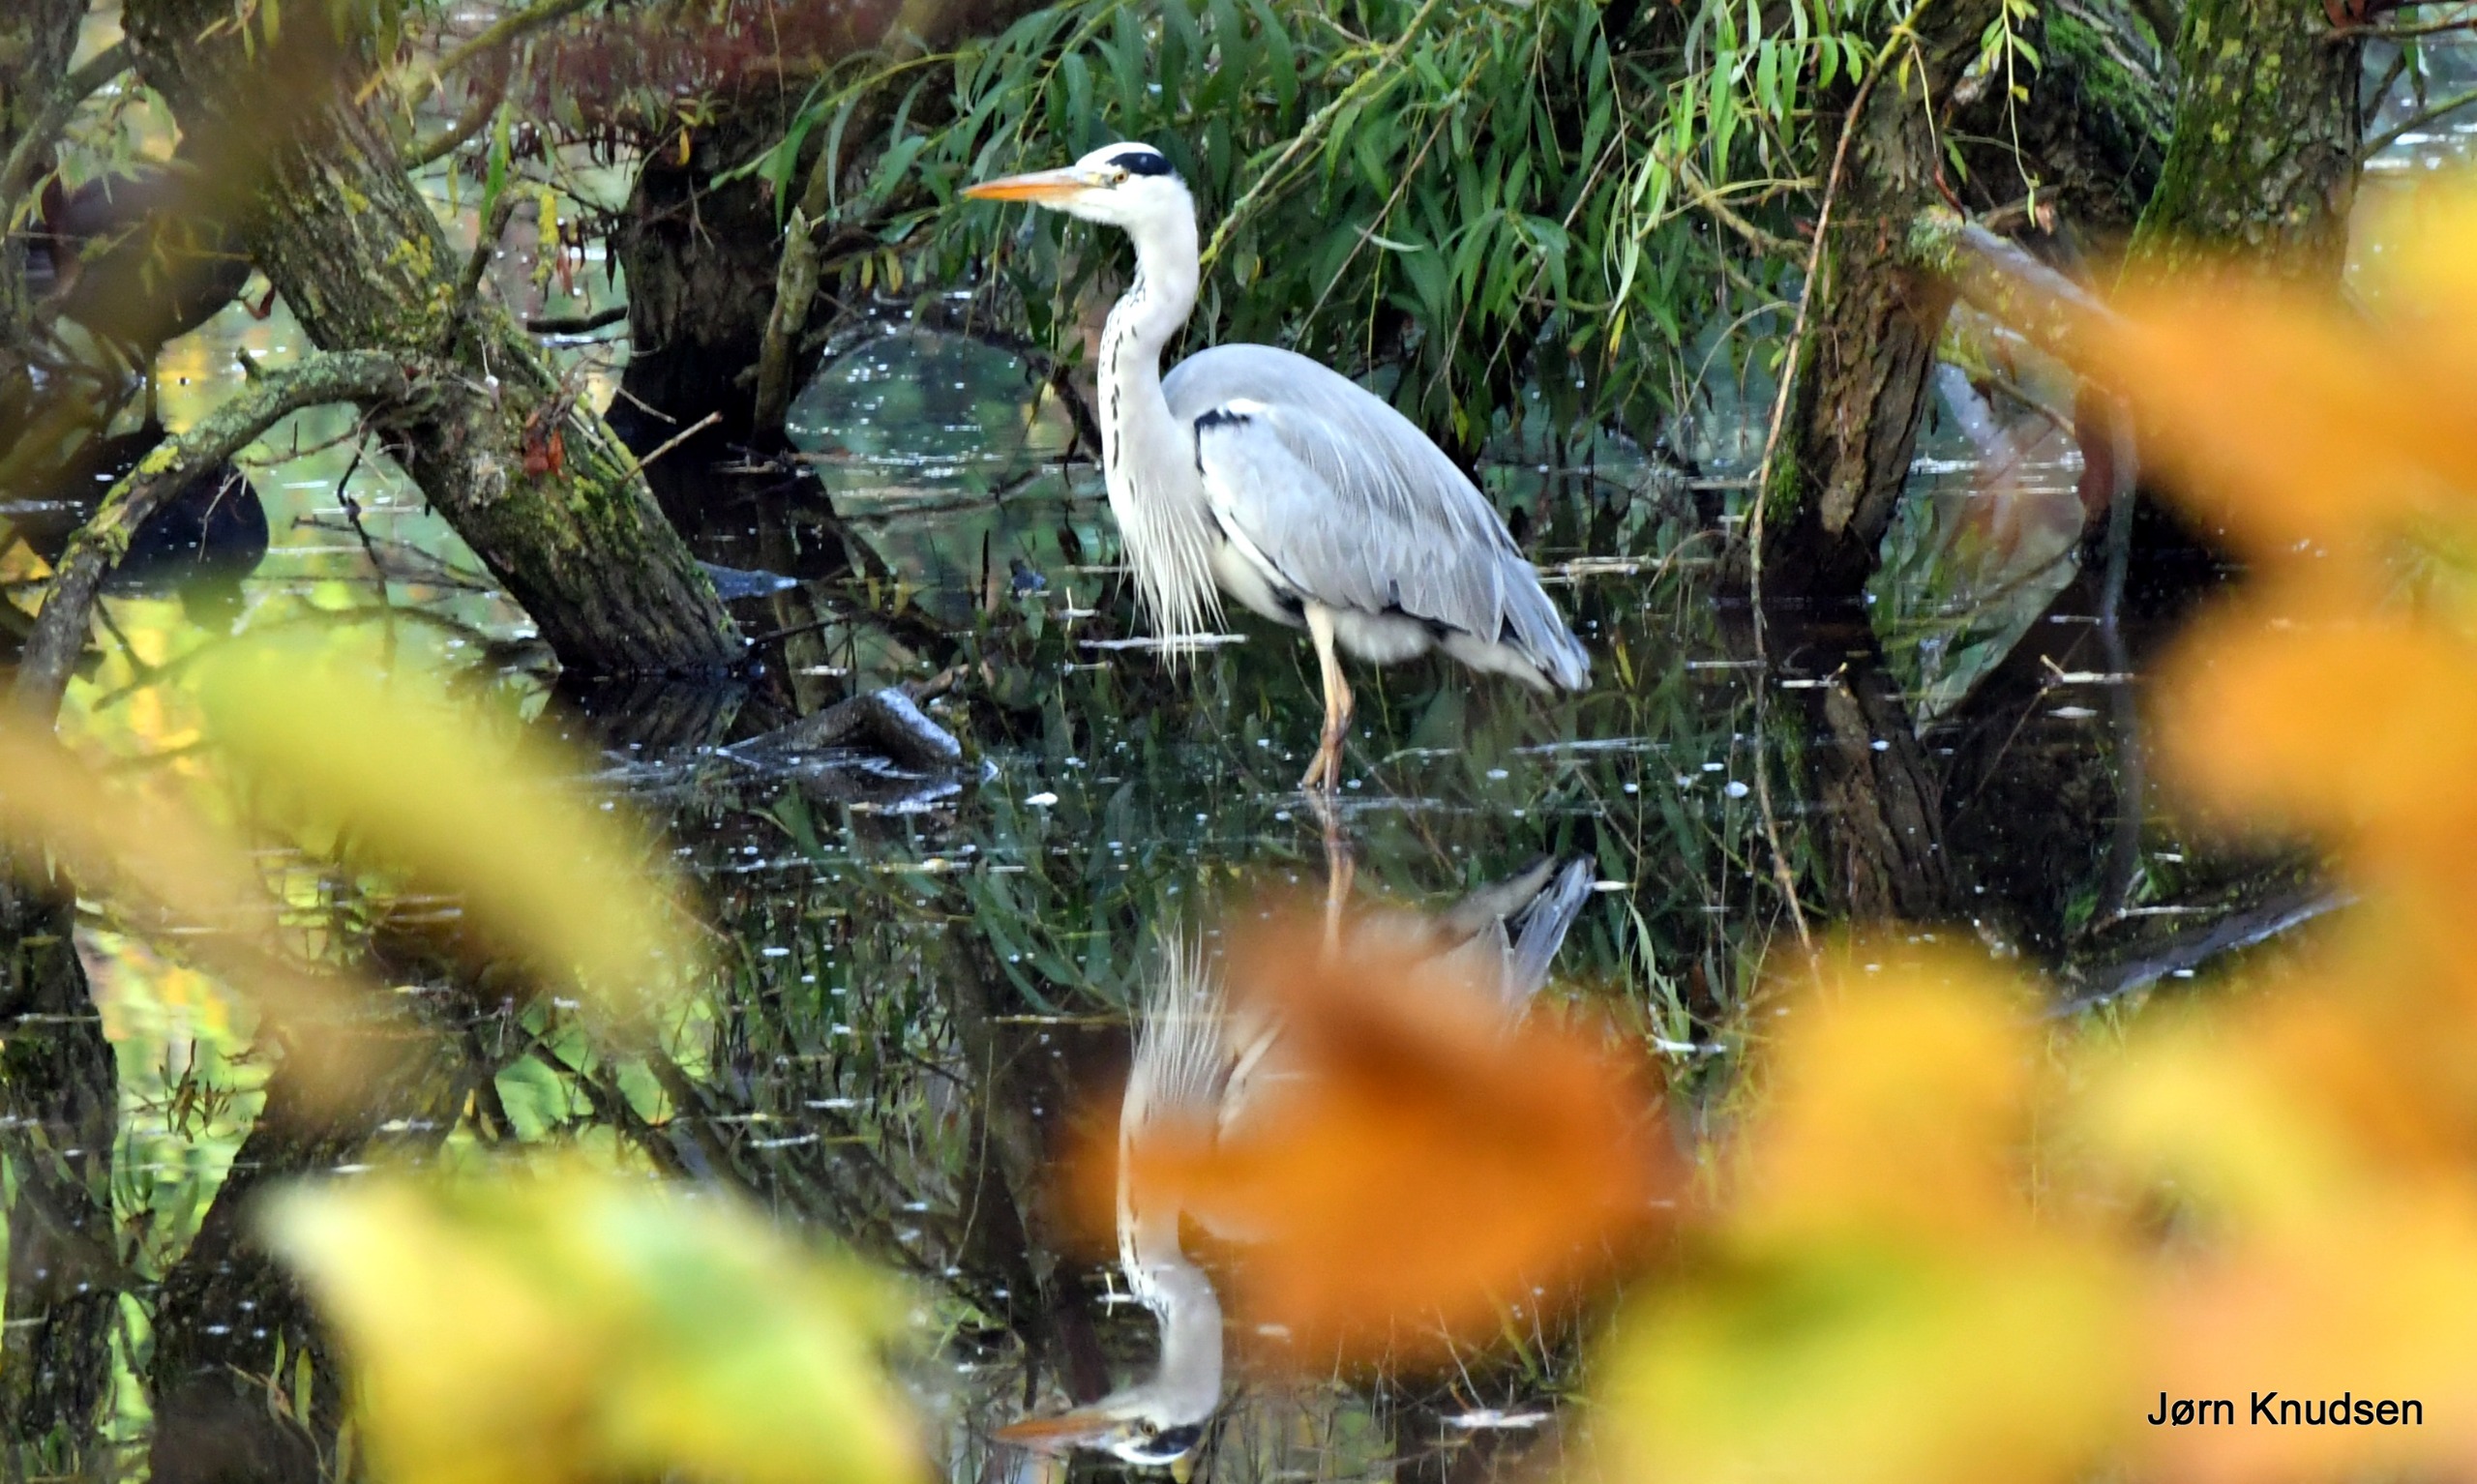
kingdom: Animalia
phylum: Chordata
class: Aves
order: Pelecaniformes
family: Ardeidae
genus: Ardea
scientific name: Ardea cinerea
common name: Fiskehejre
